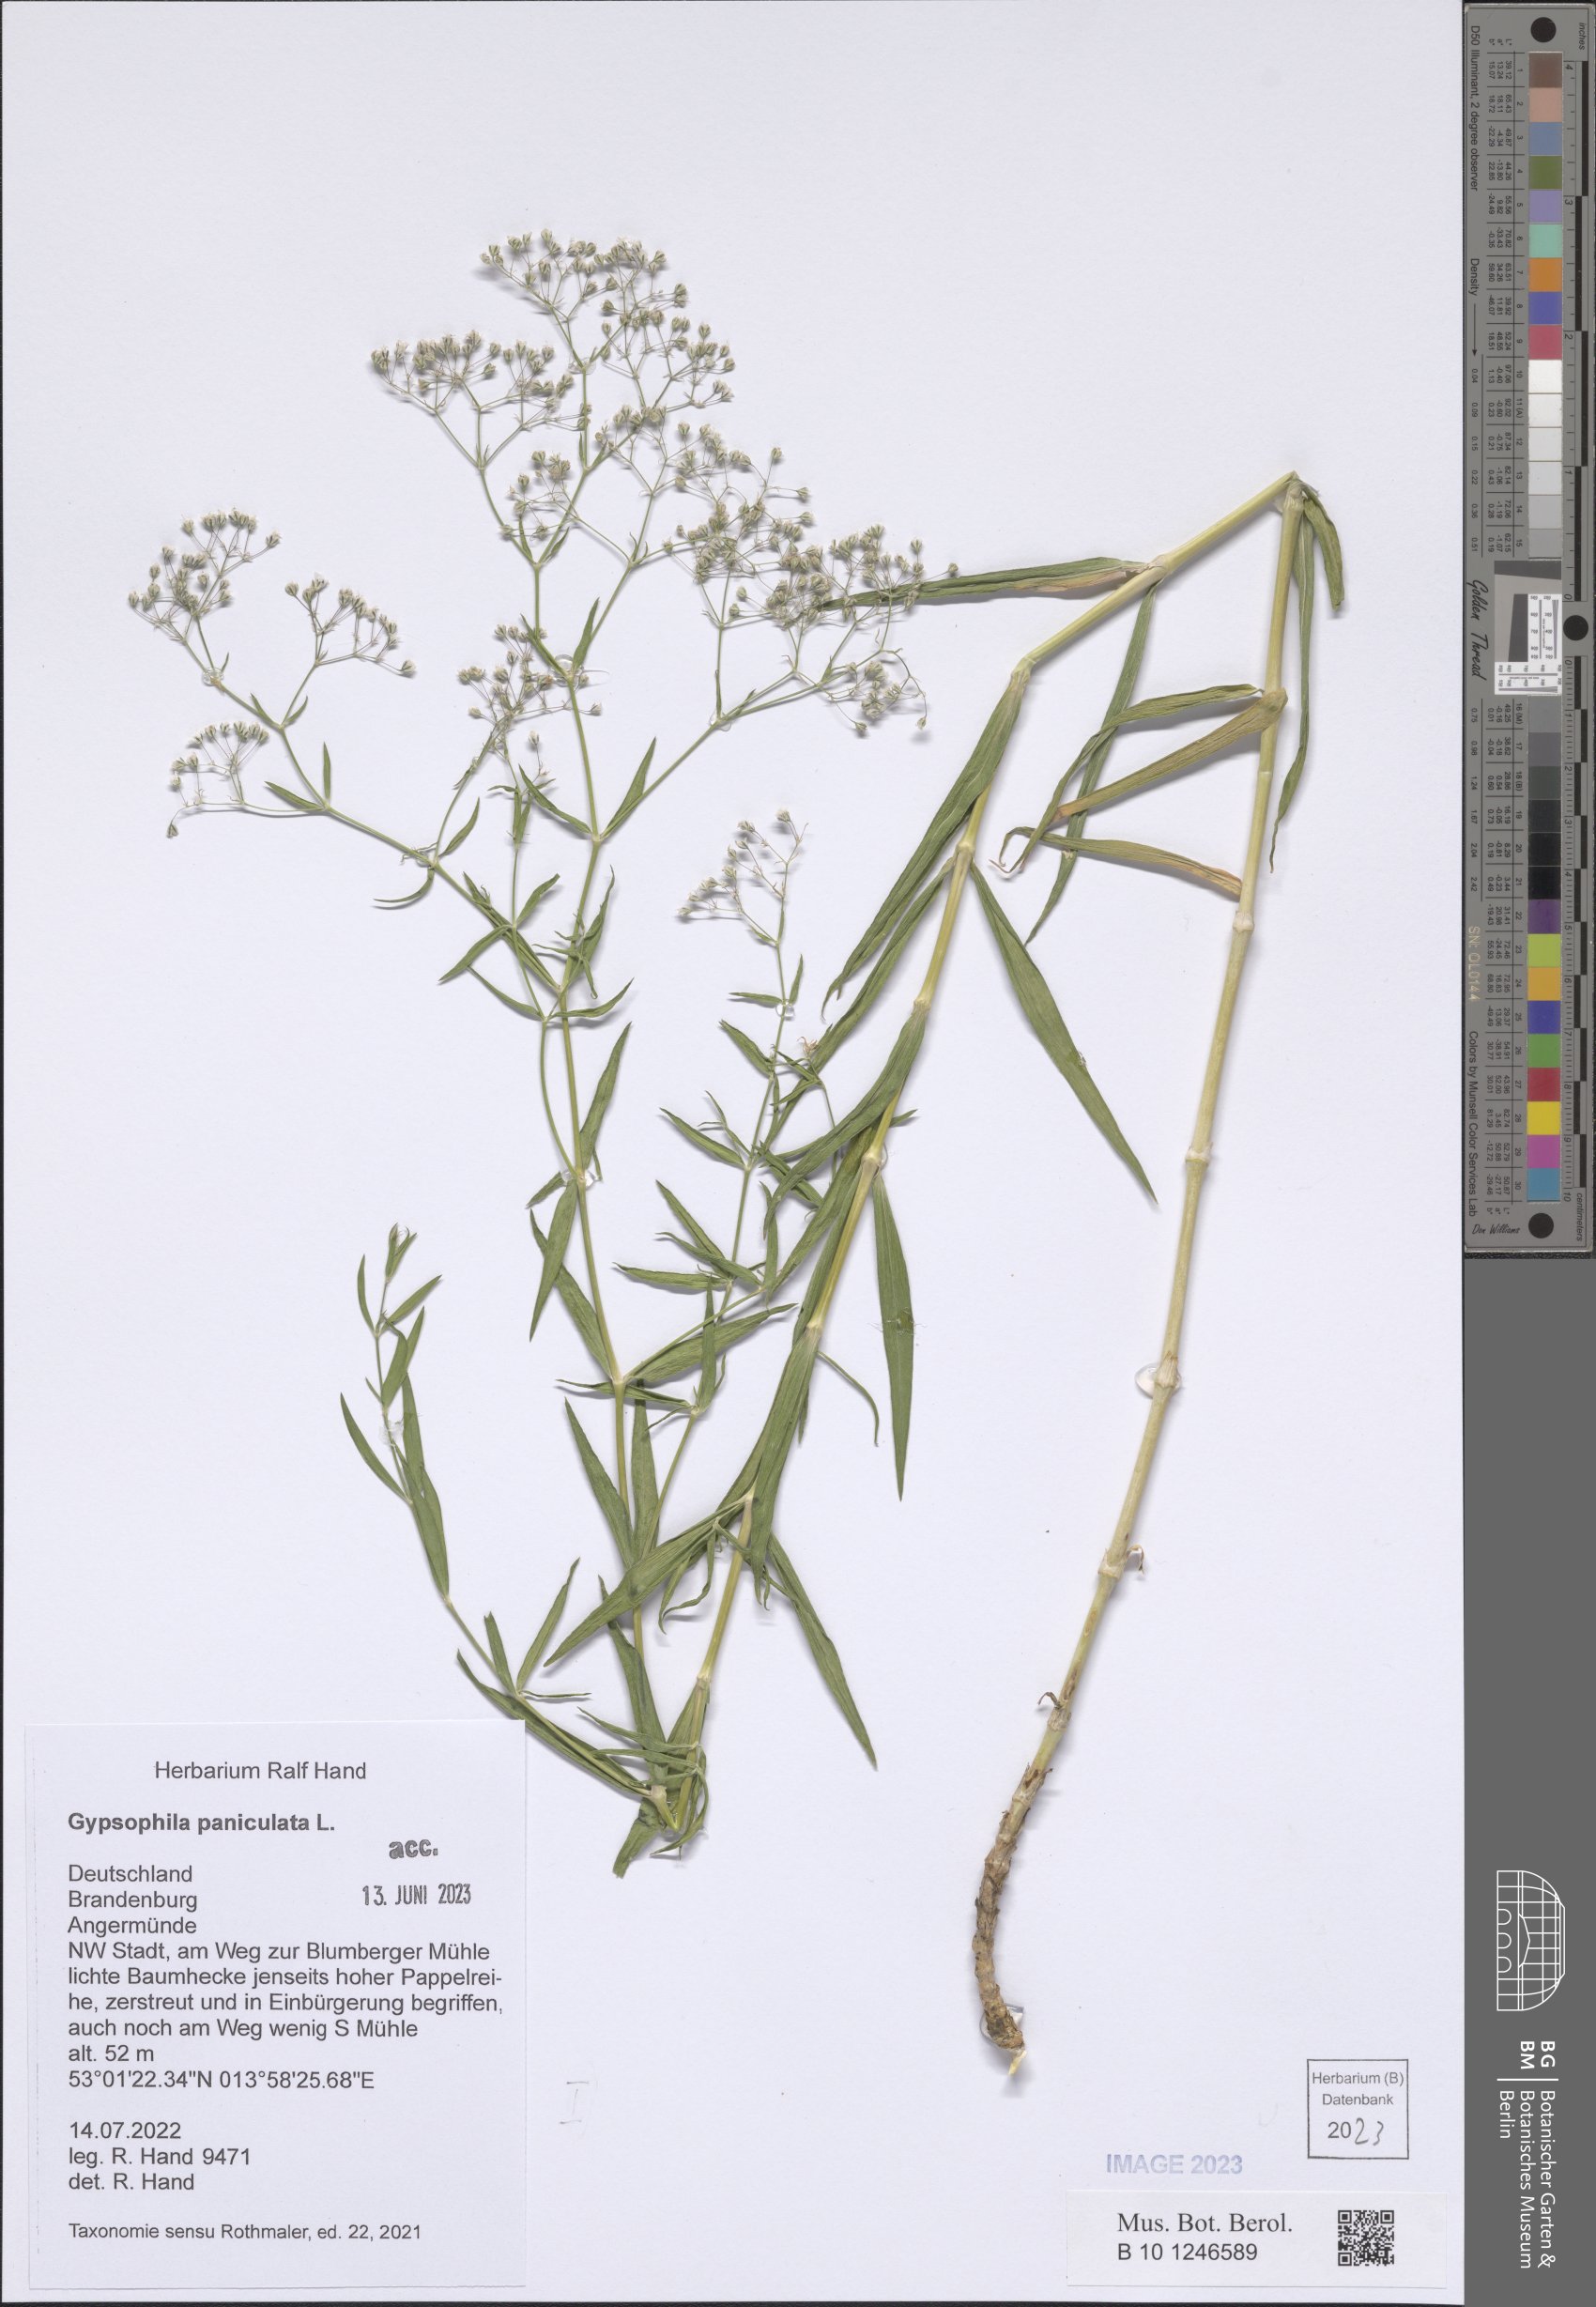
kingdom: Plantae
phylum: Tracheophyta
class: Magnoliopsida
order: Caryophyllales
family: Caryophyllaceae
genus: Gypsophila
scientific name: Gypsophila paniculata
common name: Baby's-breath
